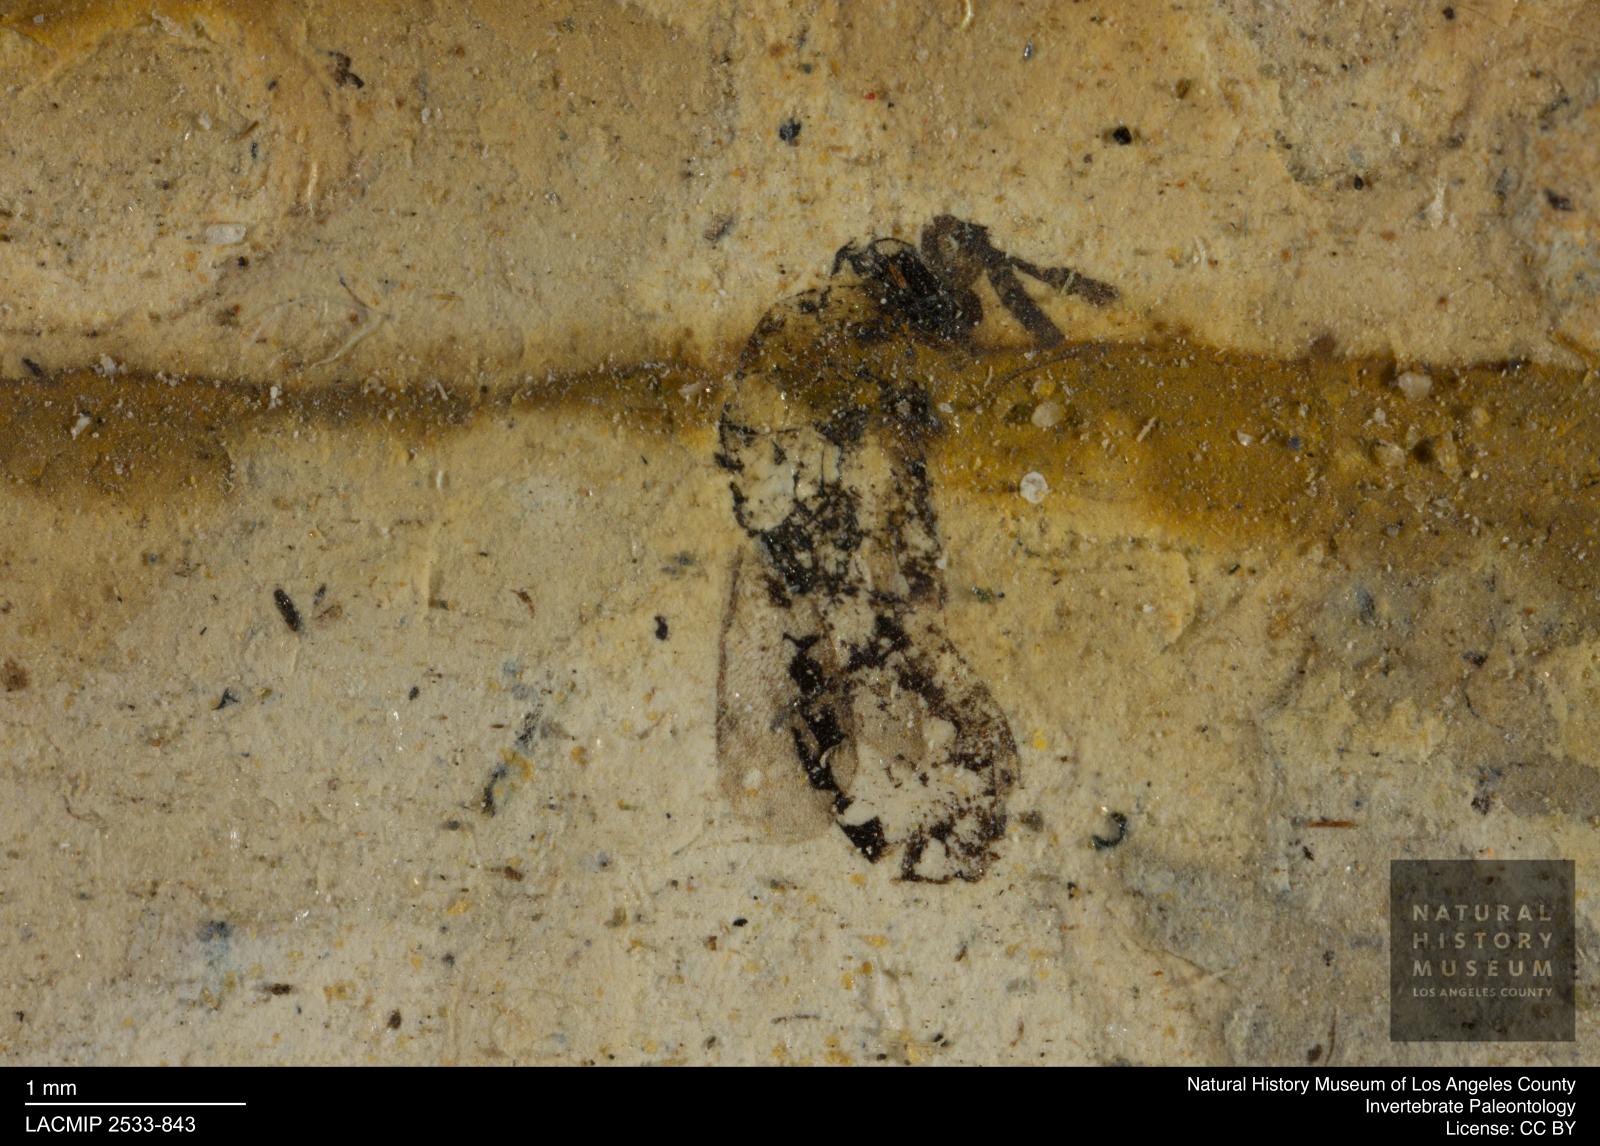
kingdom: Animalia
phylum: Arthropoda
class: Insecta
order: Hymenoptera
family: Pteromalidae
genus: Pteromalus
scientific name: Pteromalus atra
